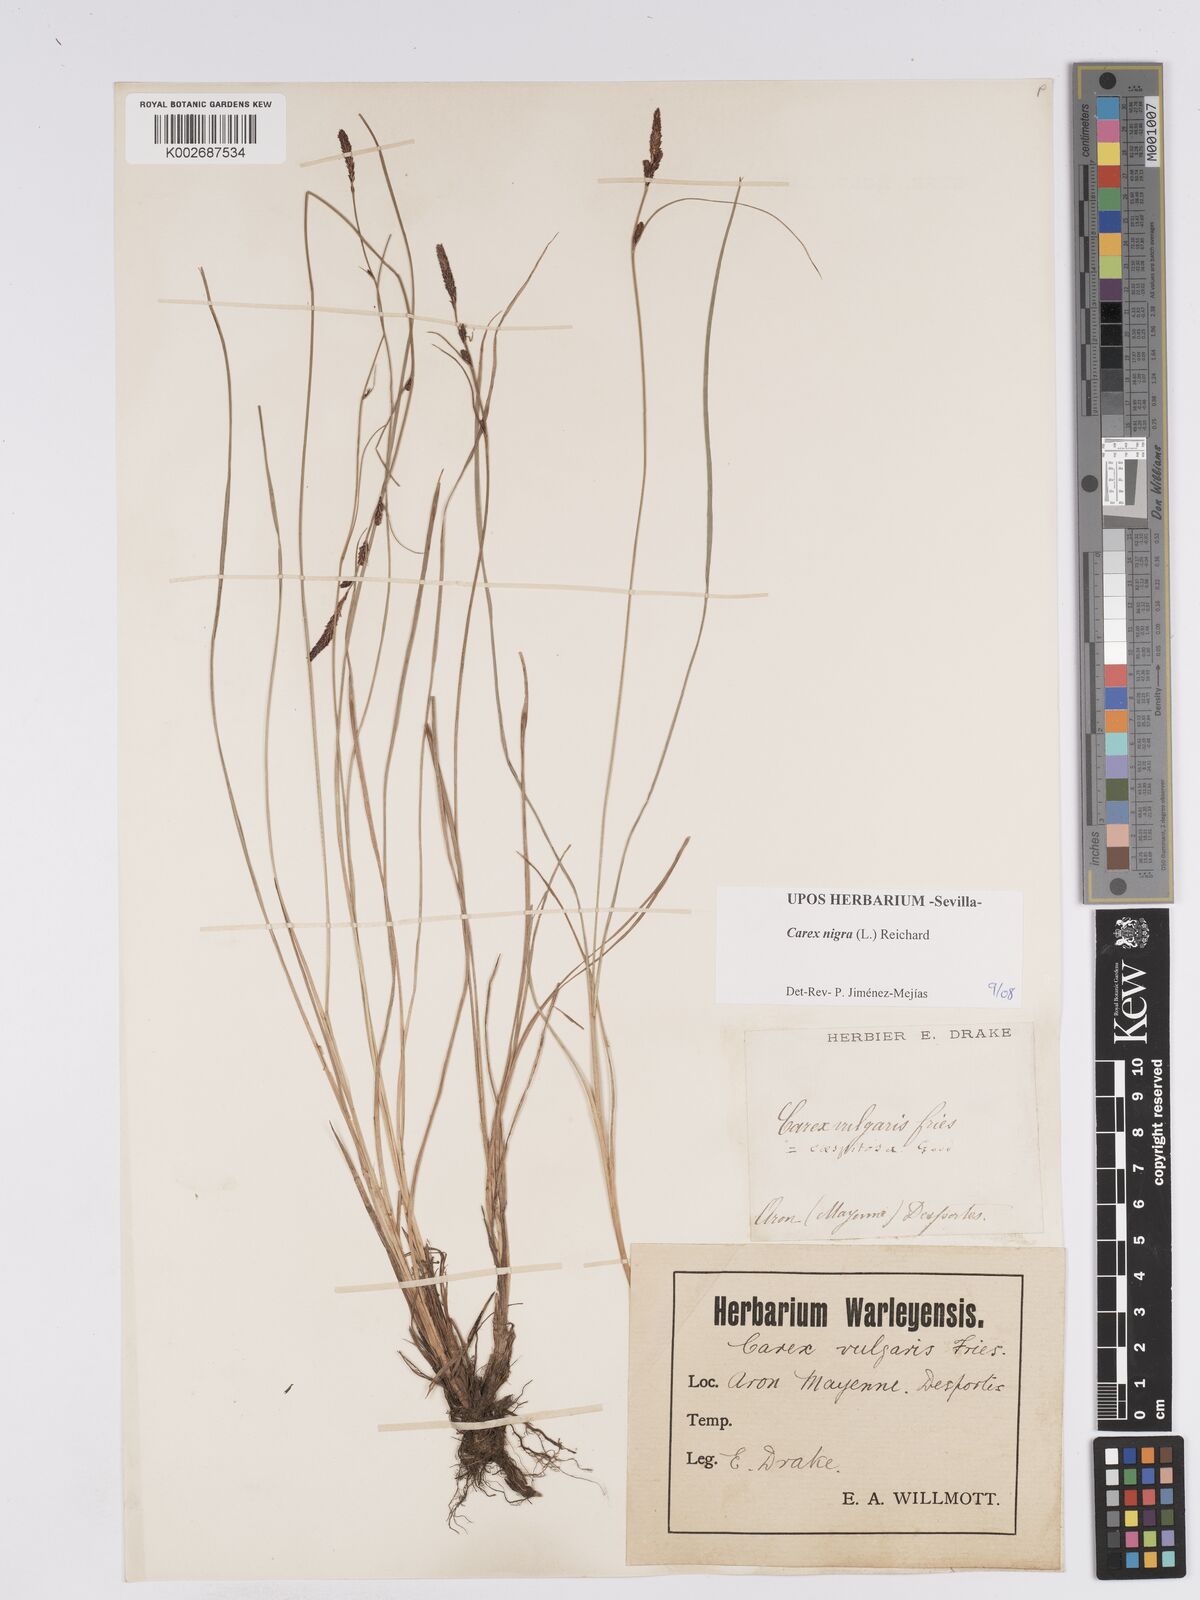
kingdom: Plantae
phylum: Tracheophyta
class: Liliopsida
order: Poales
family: Cyperaceae
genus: Carex
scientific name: Carex nigra
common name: Common sedge
